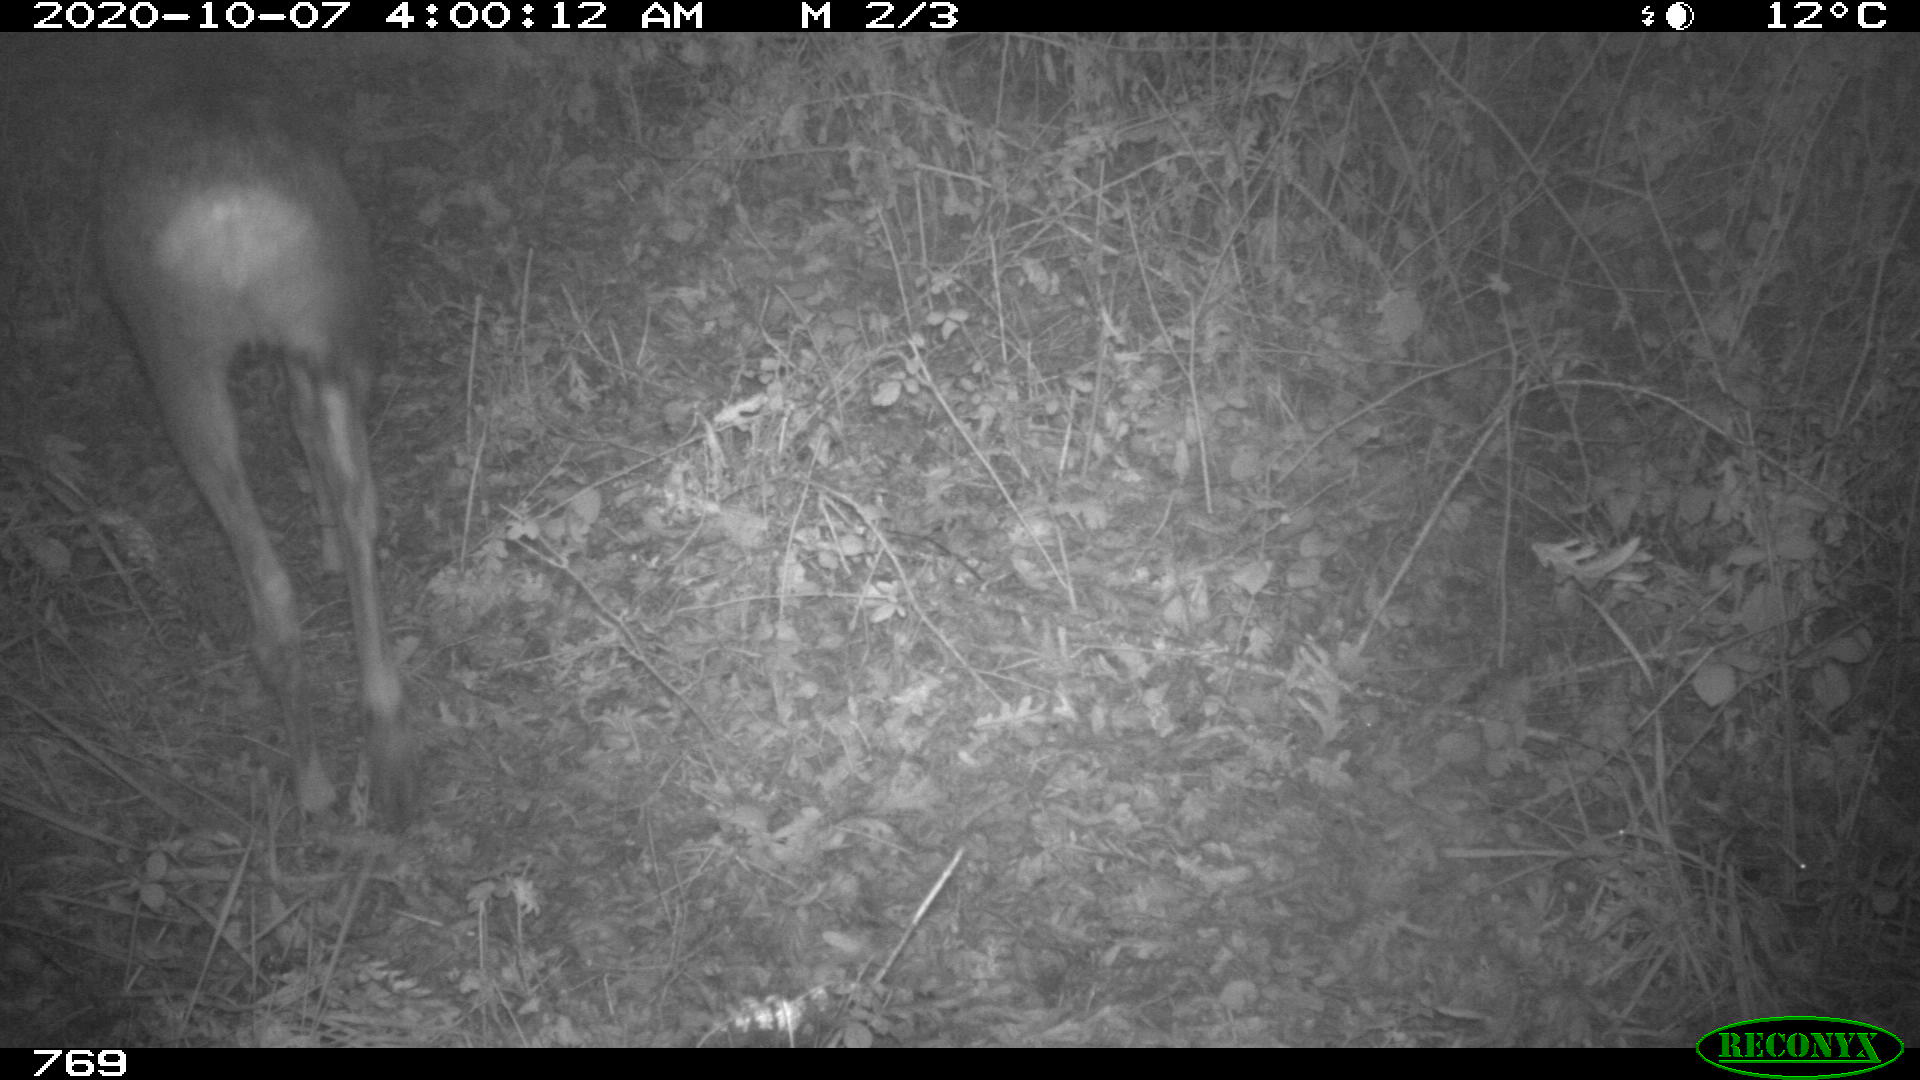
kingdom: Animalia
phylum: Chordata
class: Mammalia
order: Artiodactyla
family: Cervidae
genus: Capreolus
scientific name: Capreolus capreolus
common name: Western roe deer
